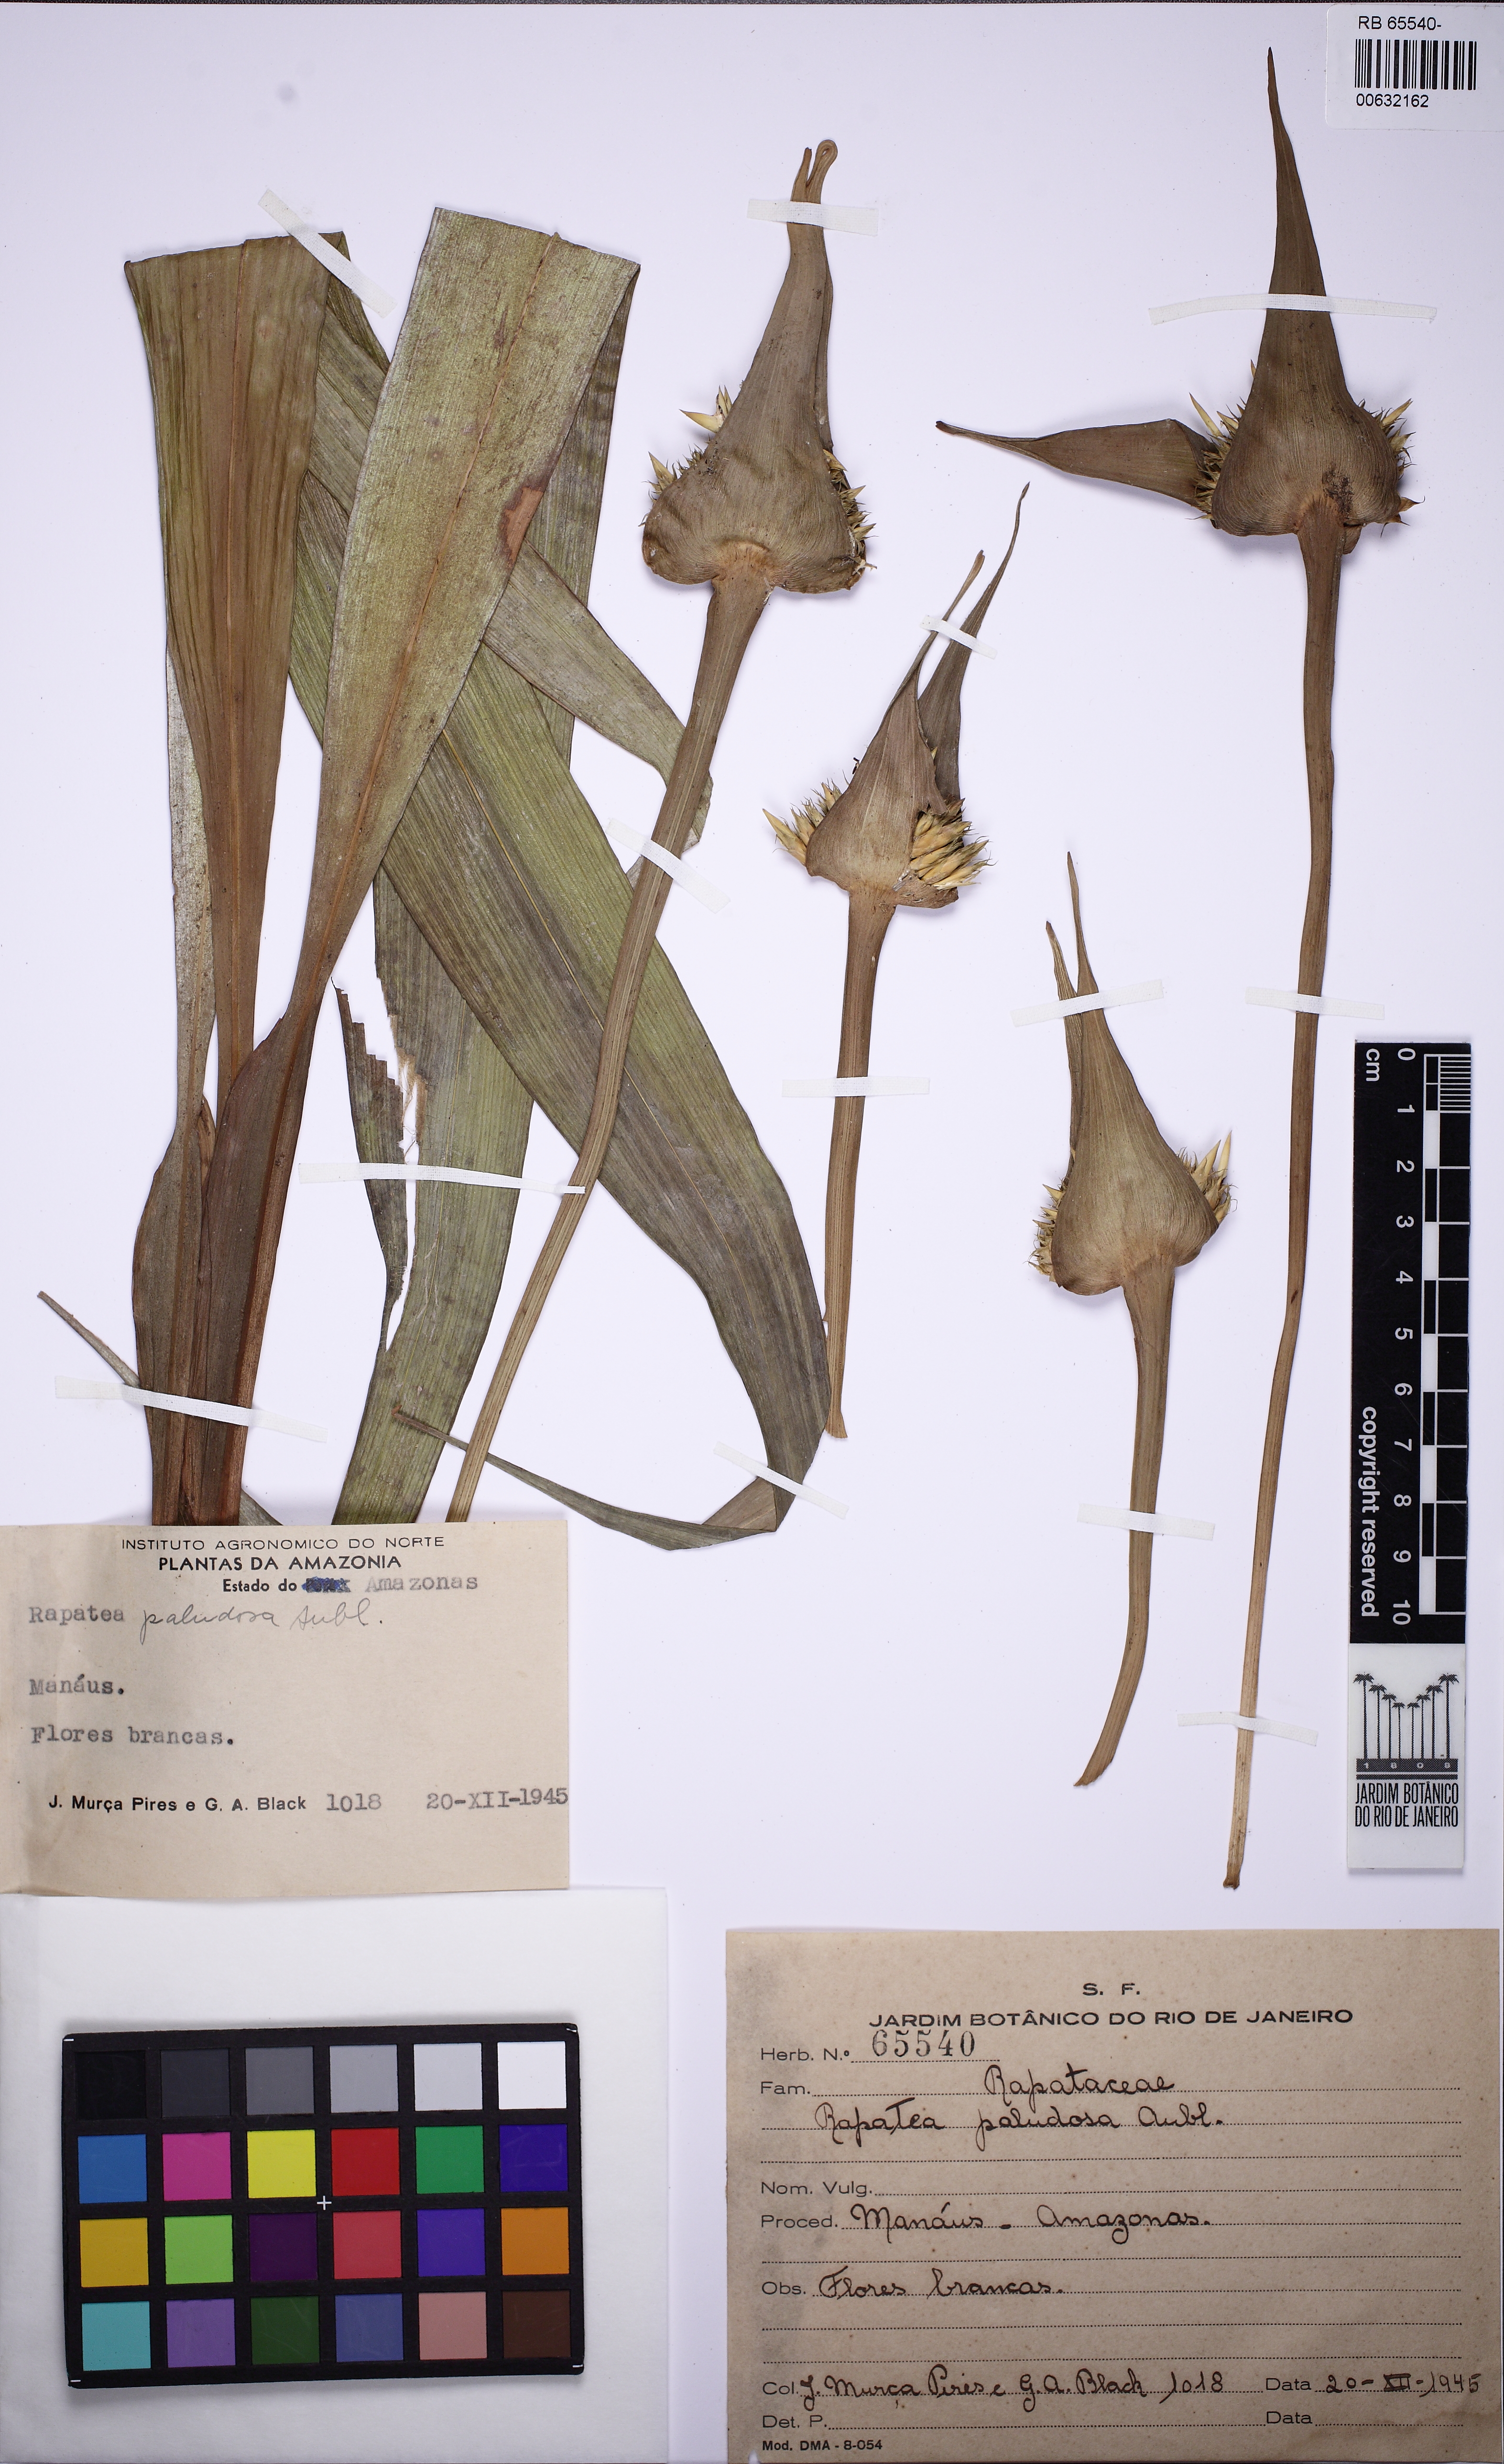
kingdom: Plantae
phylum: Tracheophyta
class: Liliopsida
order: Poales
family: Rapateaceae
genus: Rapatea
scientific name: Rapatea paludosa
